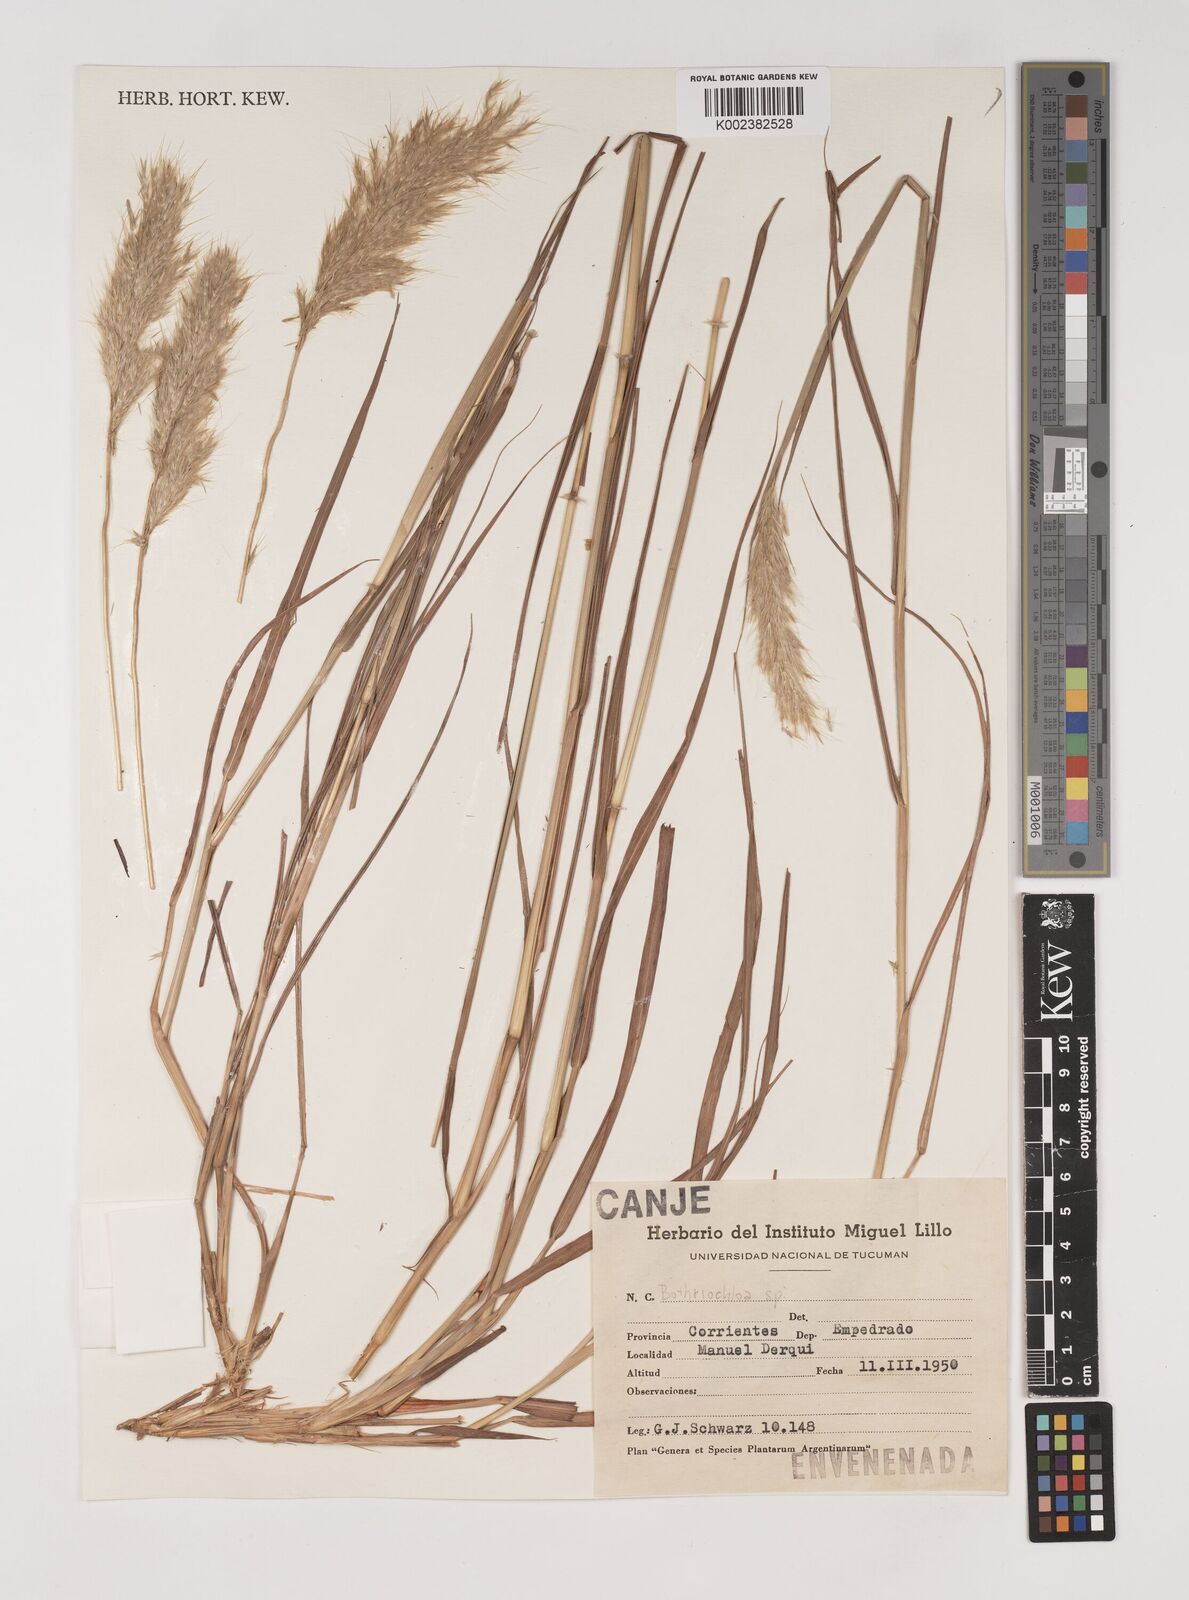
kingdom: Plantae
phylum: Tracheophyta
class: Liliopsida
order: Poales
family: Poaceae
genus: Bothriochloa
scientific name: Bothriochloa saccharoides
